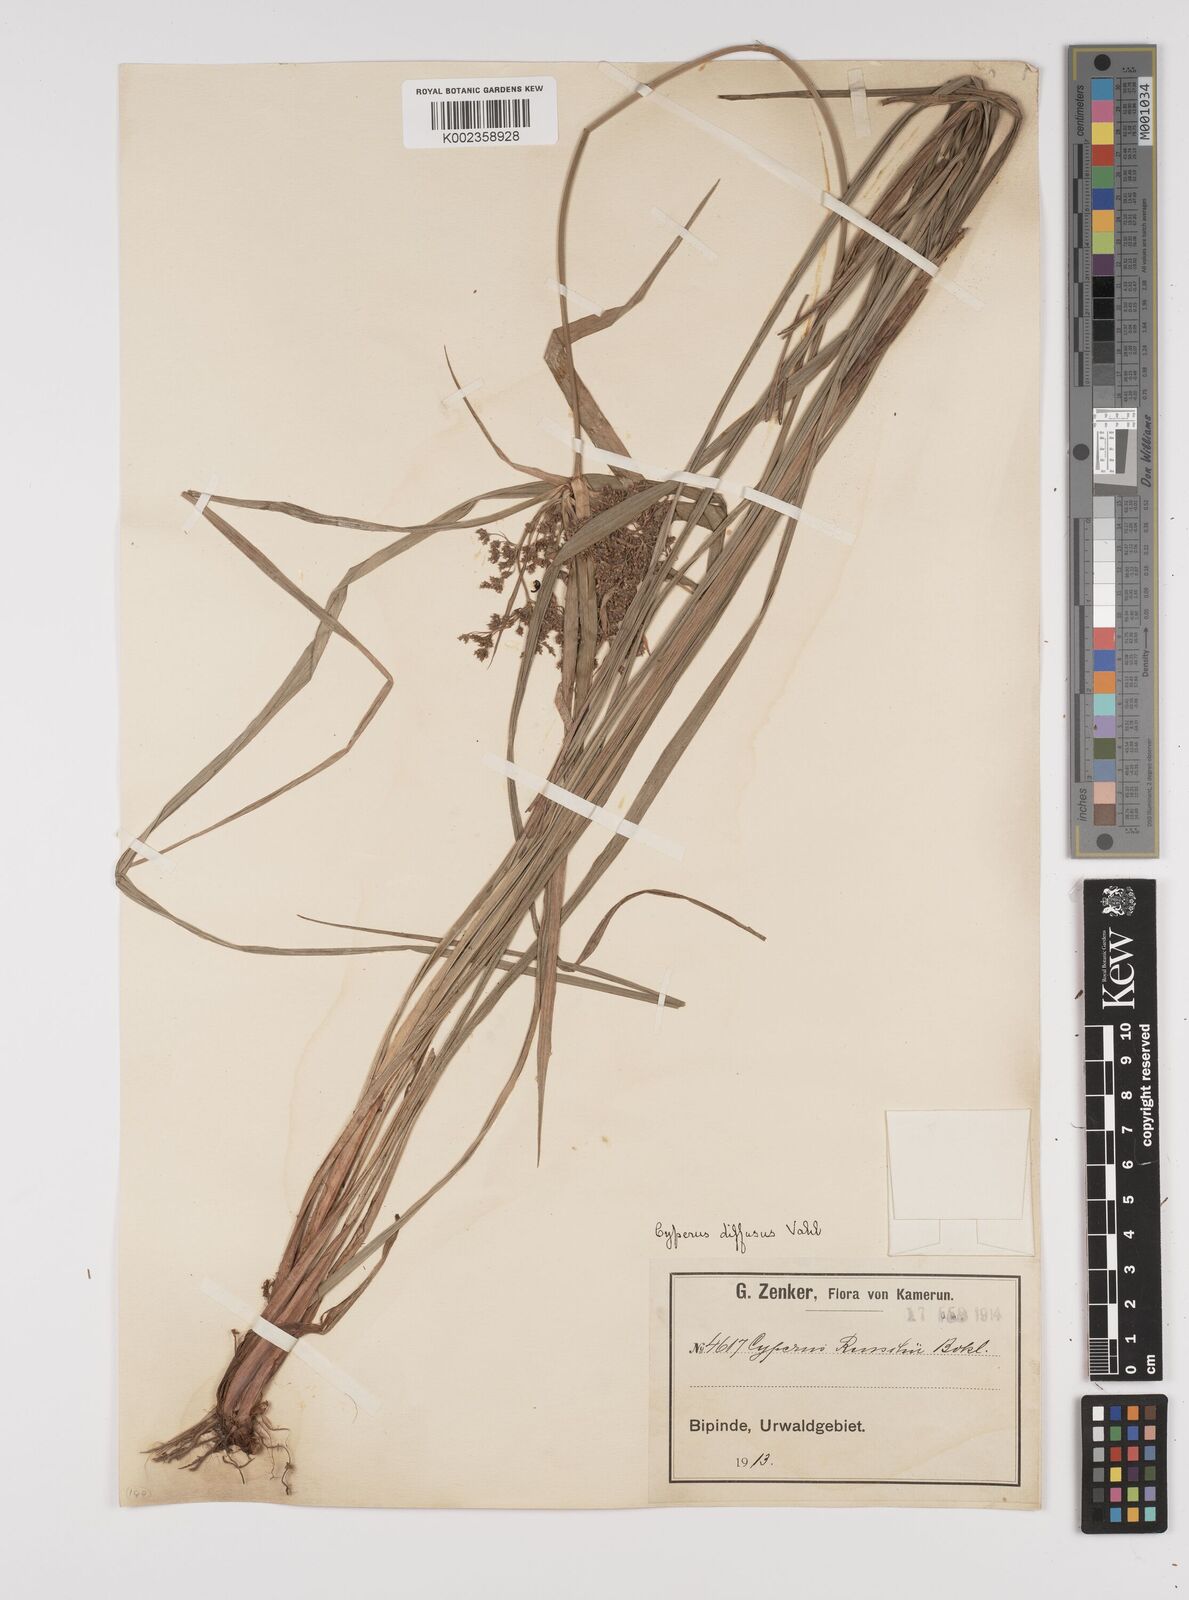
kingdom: Plantae
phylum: Tracheophyta
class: Liliopsida
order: Poales
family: Cyperaceae
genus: Cyperus
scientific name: Cyperus buchholzii
